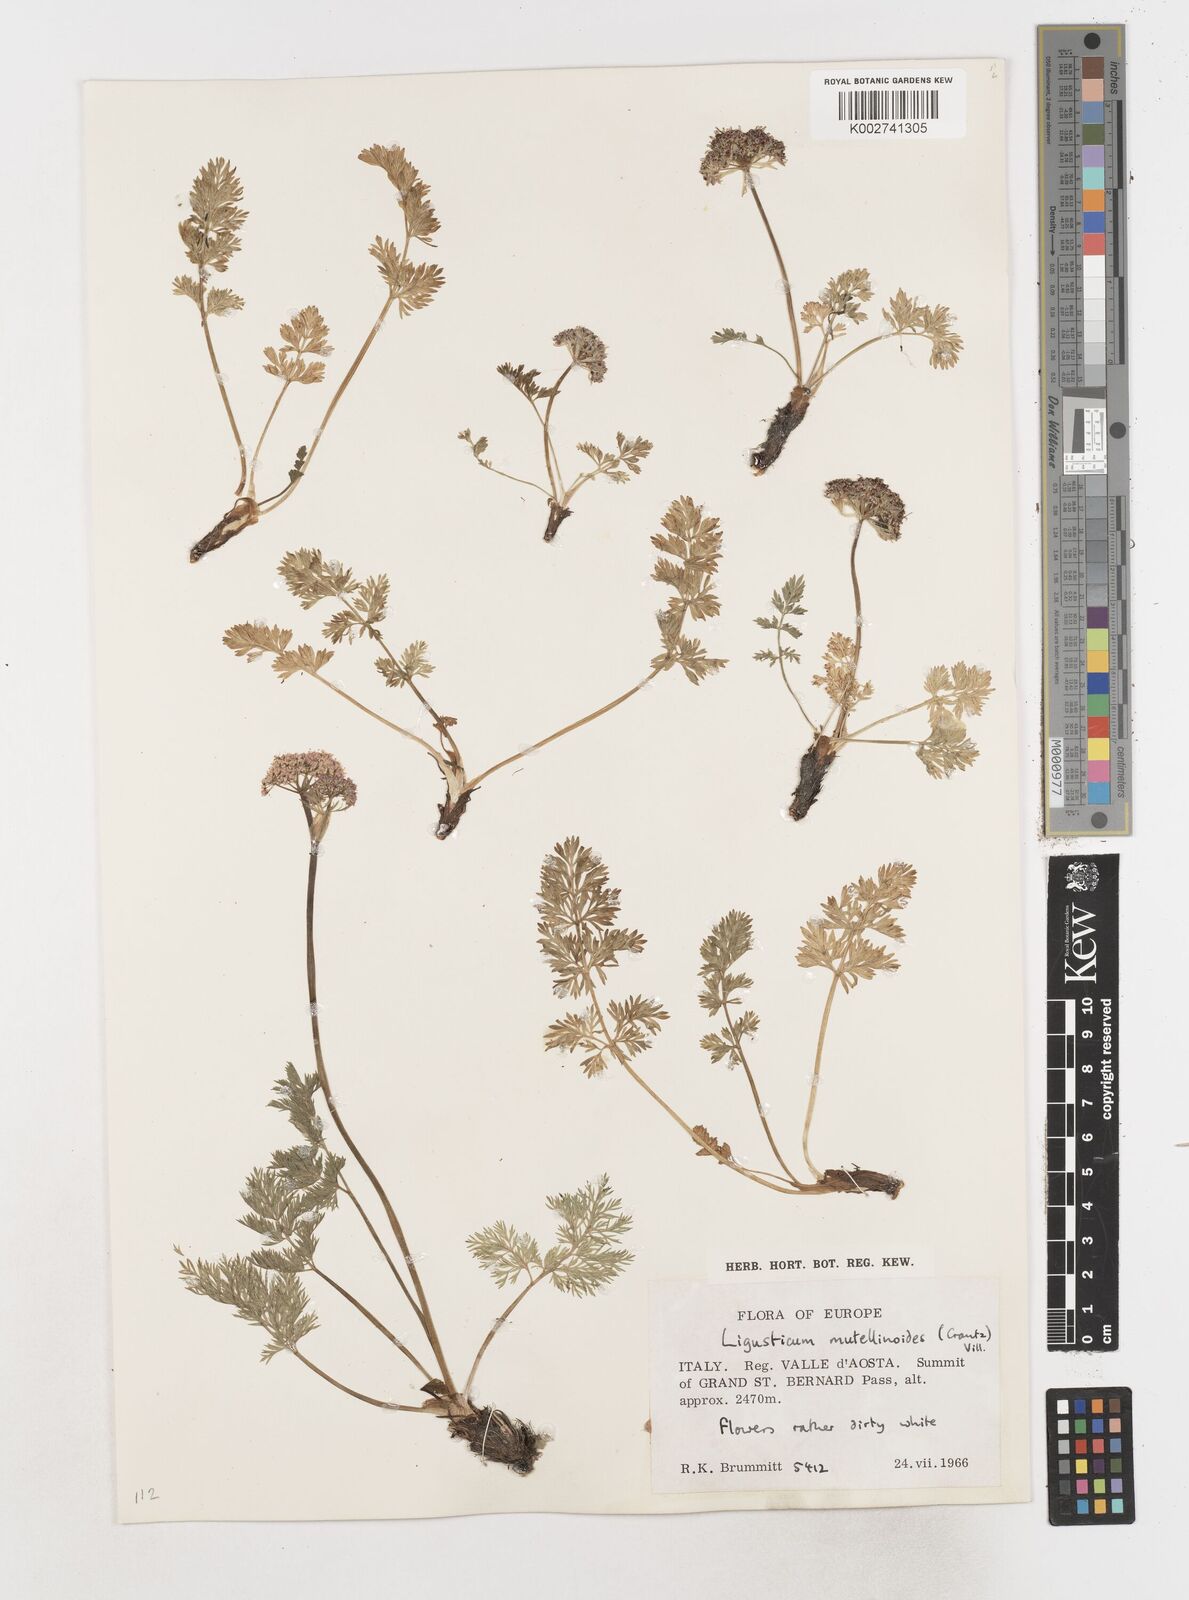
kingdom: Plantae
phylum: Tracheophyta
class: Magnoliopsida
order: Apiales
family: Apiaceae
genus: Mutellina
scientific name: Mutellina adonidifolia
